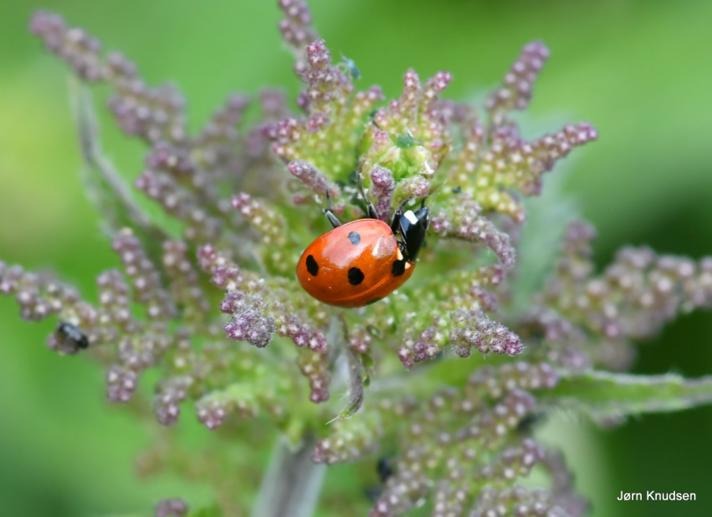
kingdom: Animalia
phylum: Arthropoda
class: Insecta
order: Coleoptera
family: Coccinellidae
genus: Coccinella
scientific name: Coccinella septempunctata
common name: Syvplettet mariehøne
